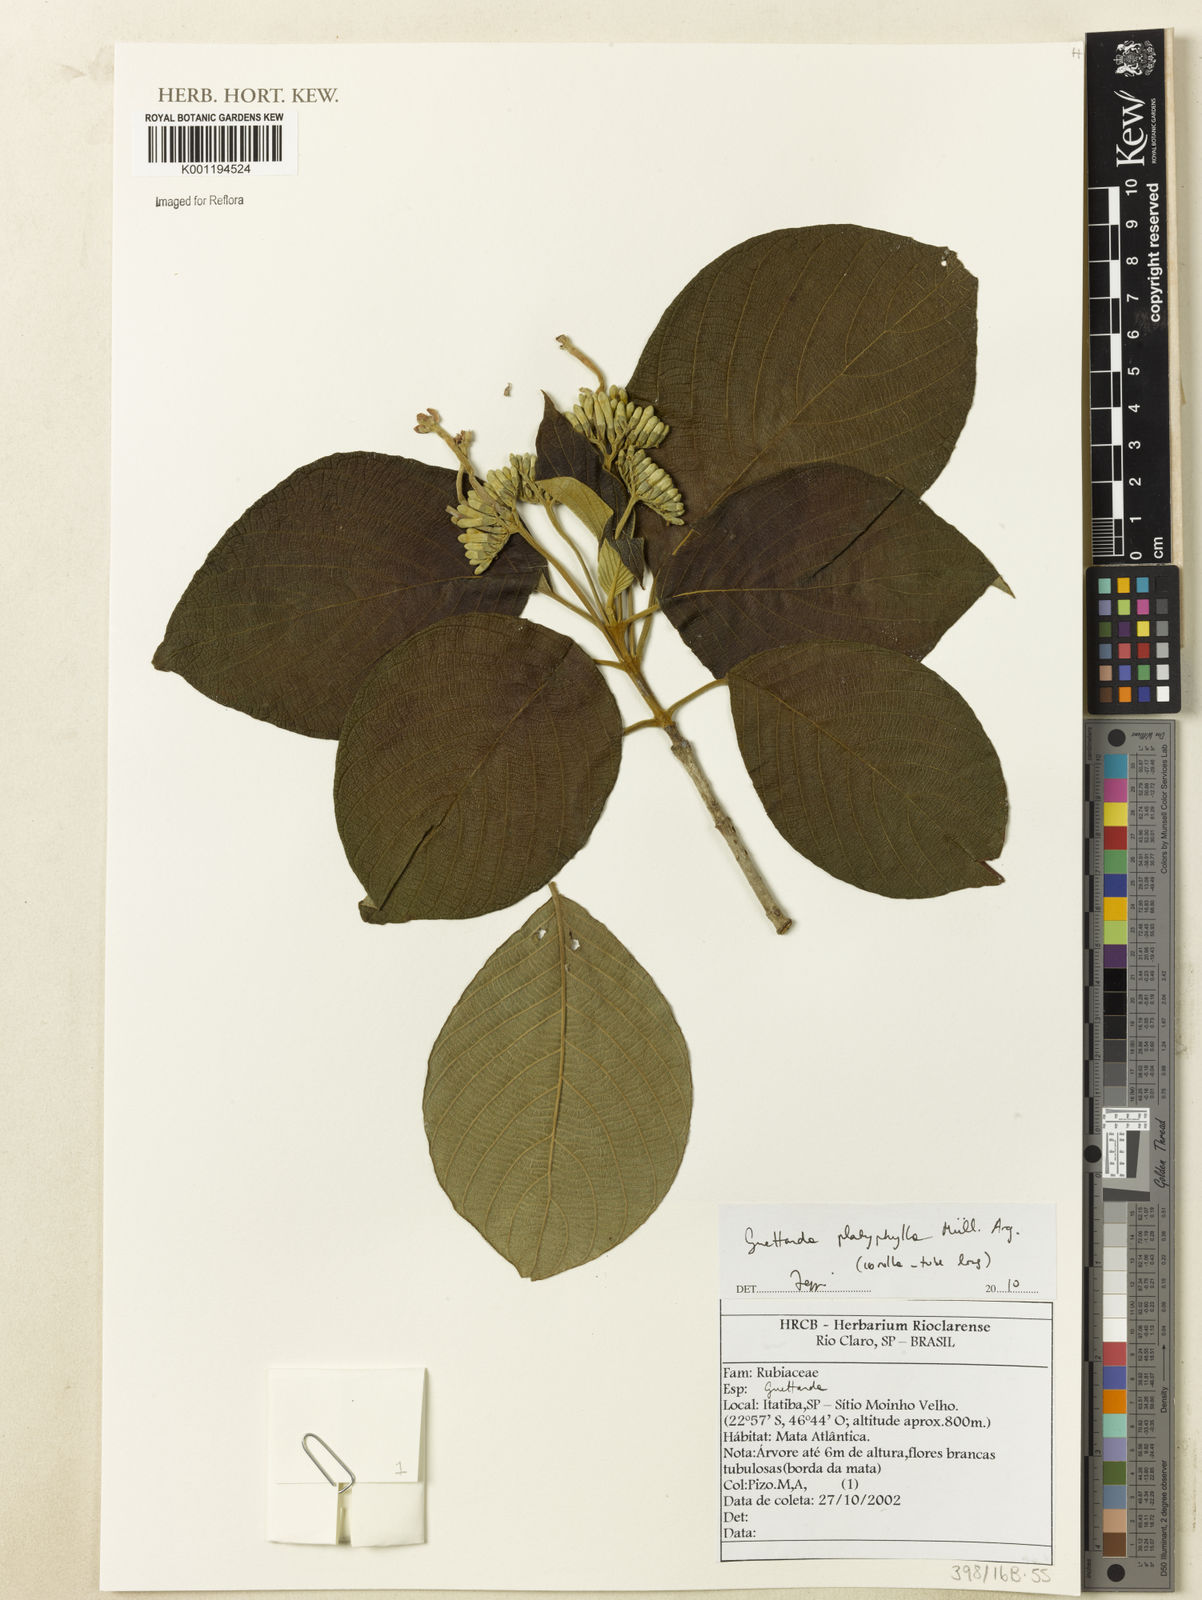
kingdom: Plantae
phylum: Tracheophyta
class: Magnoliopsida
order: Gentianales
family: Rubiaceae
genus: Guettarda
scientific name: Guettarda
